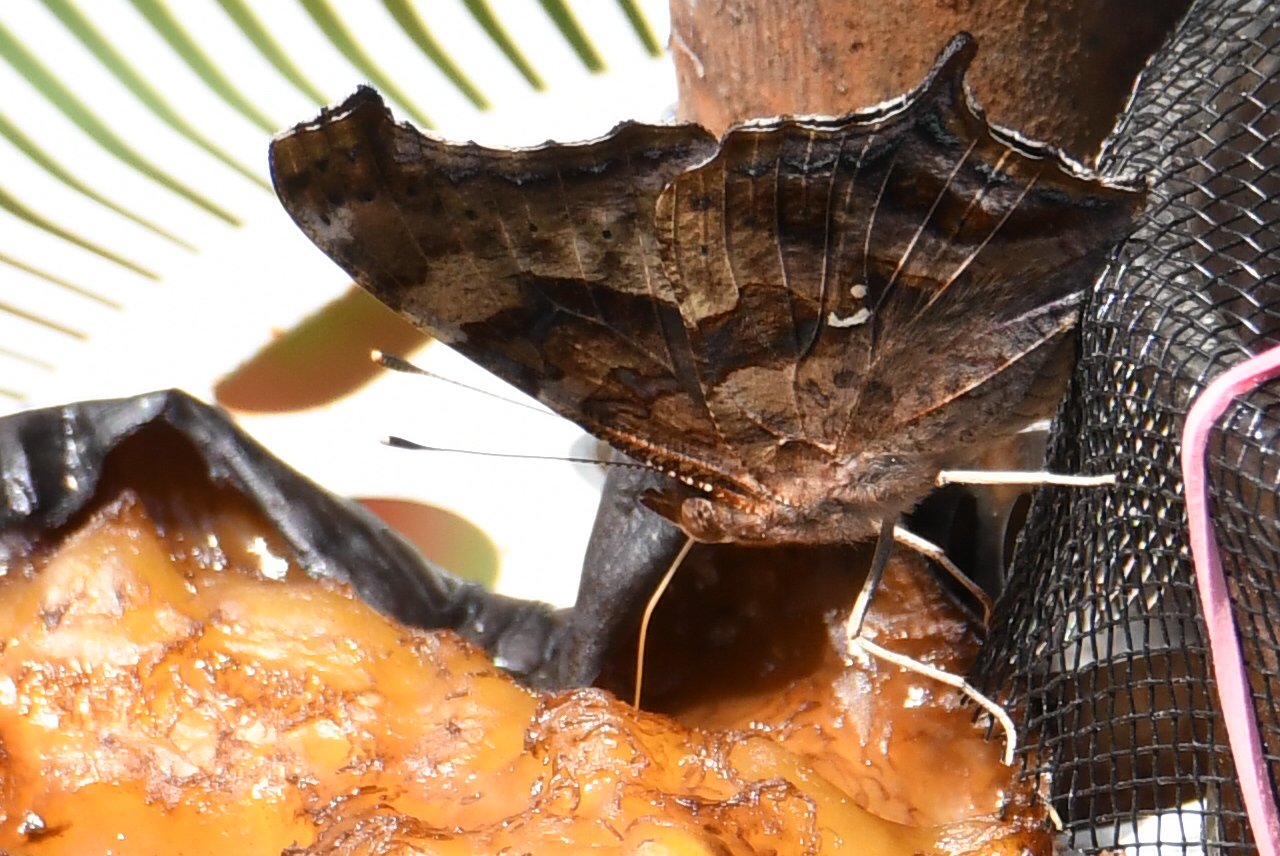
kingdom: Animalia
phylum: Arthropoda
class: Insecta
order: Lepidoptera
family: Nymphalidae
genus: Polygonia
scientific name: Polygonia interrogationis
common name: Question Mark
